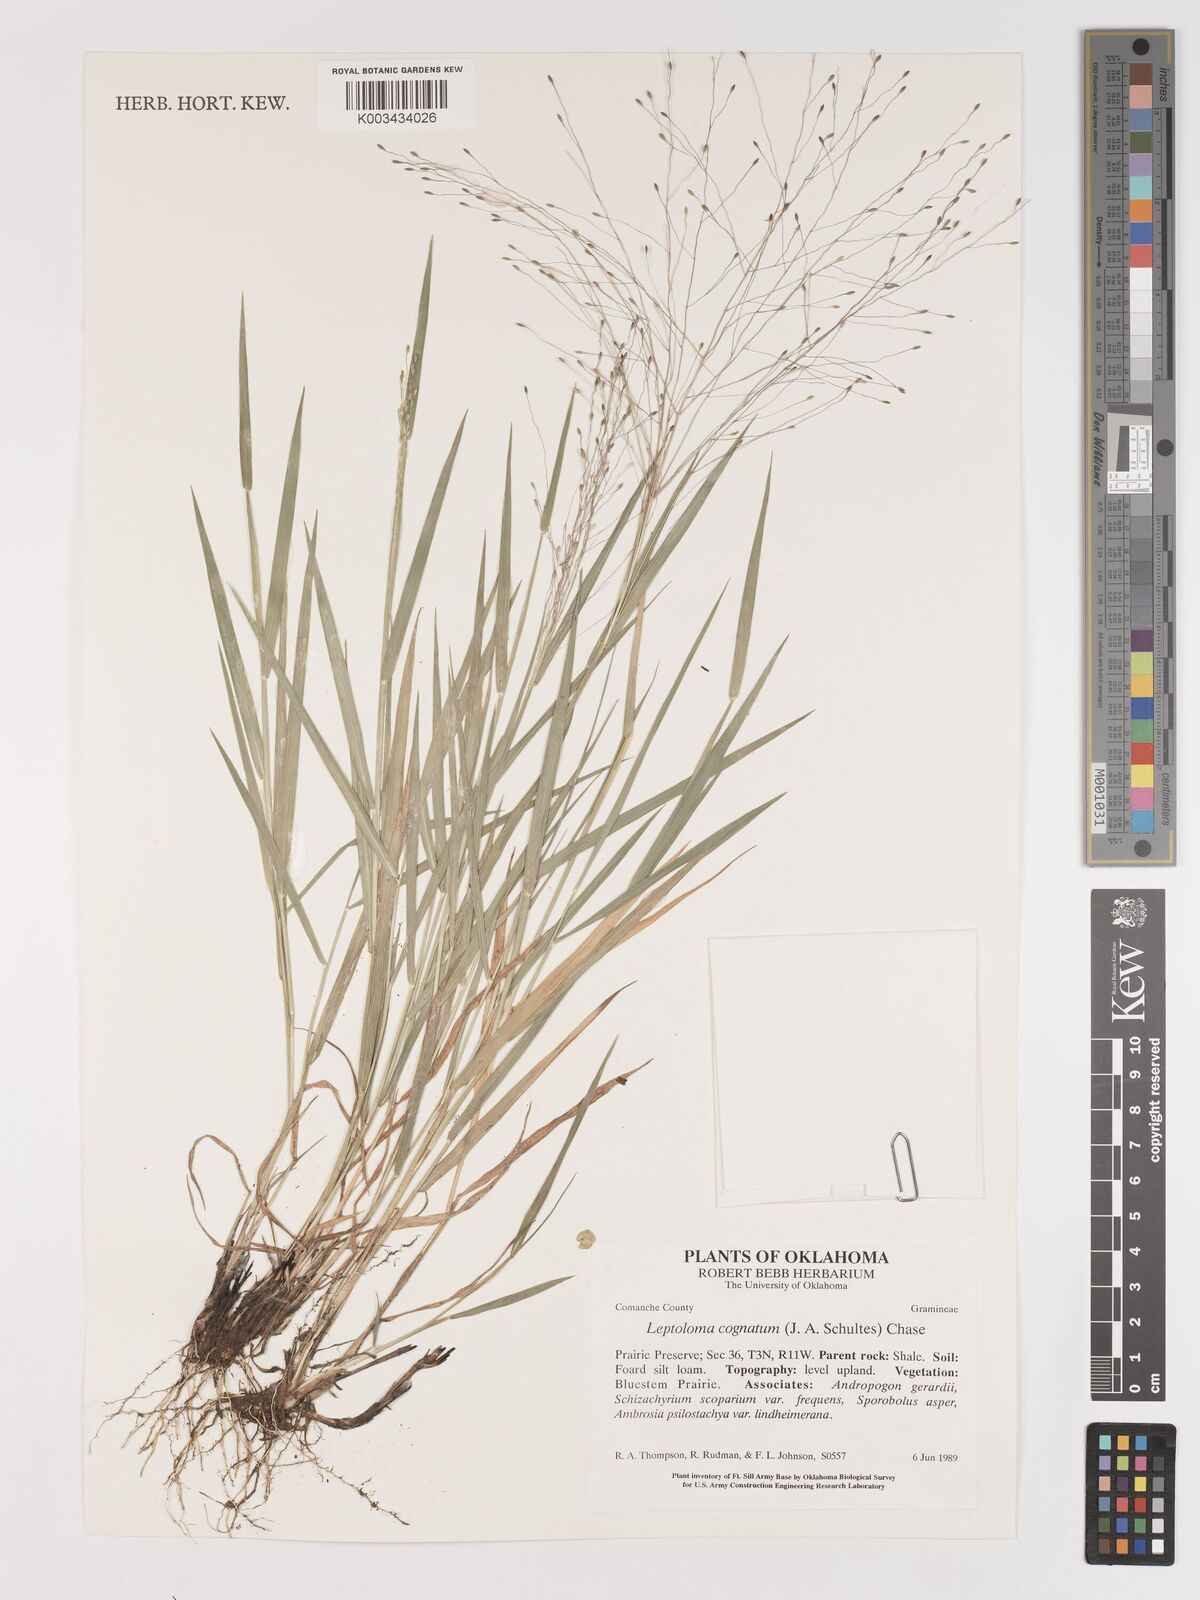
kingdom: Plantae
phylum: Tracheophyta
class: Liliopsida
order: Poales
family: Poaceae
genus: Digitaria
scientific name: Digitaria cognata
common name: Fall witchgrass
